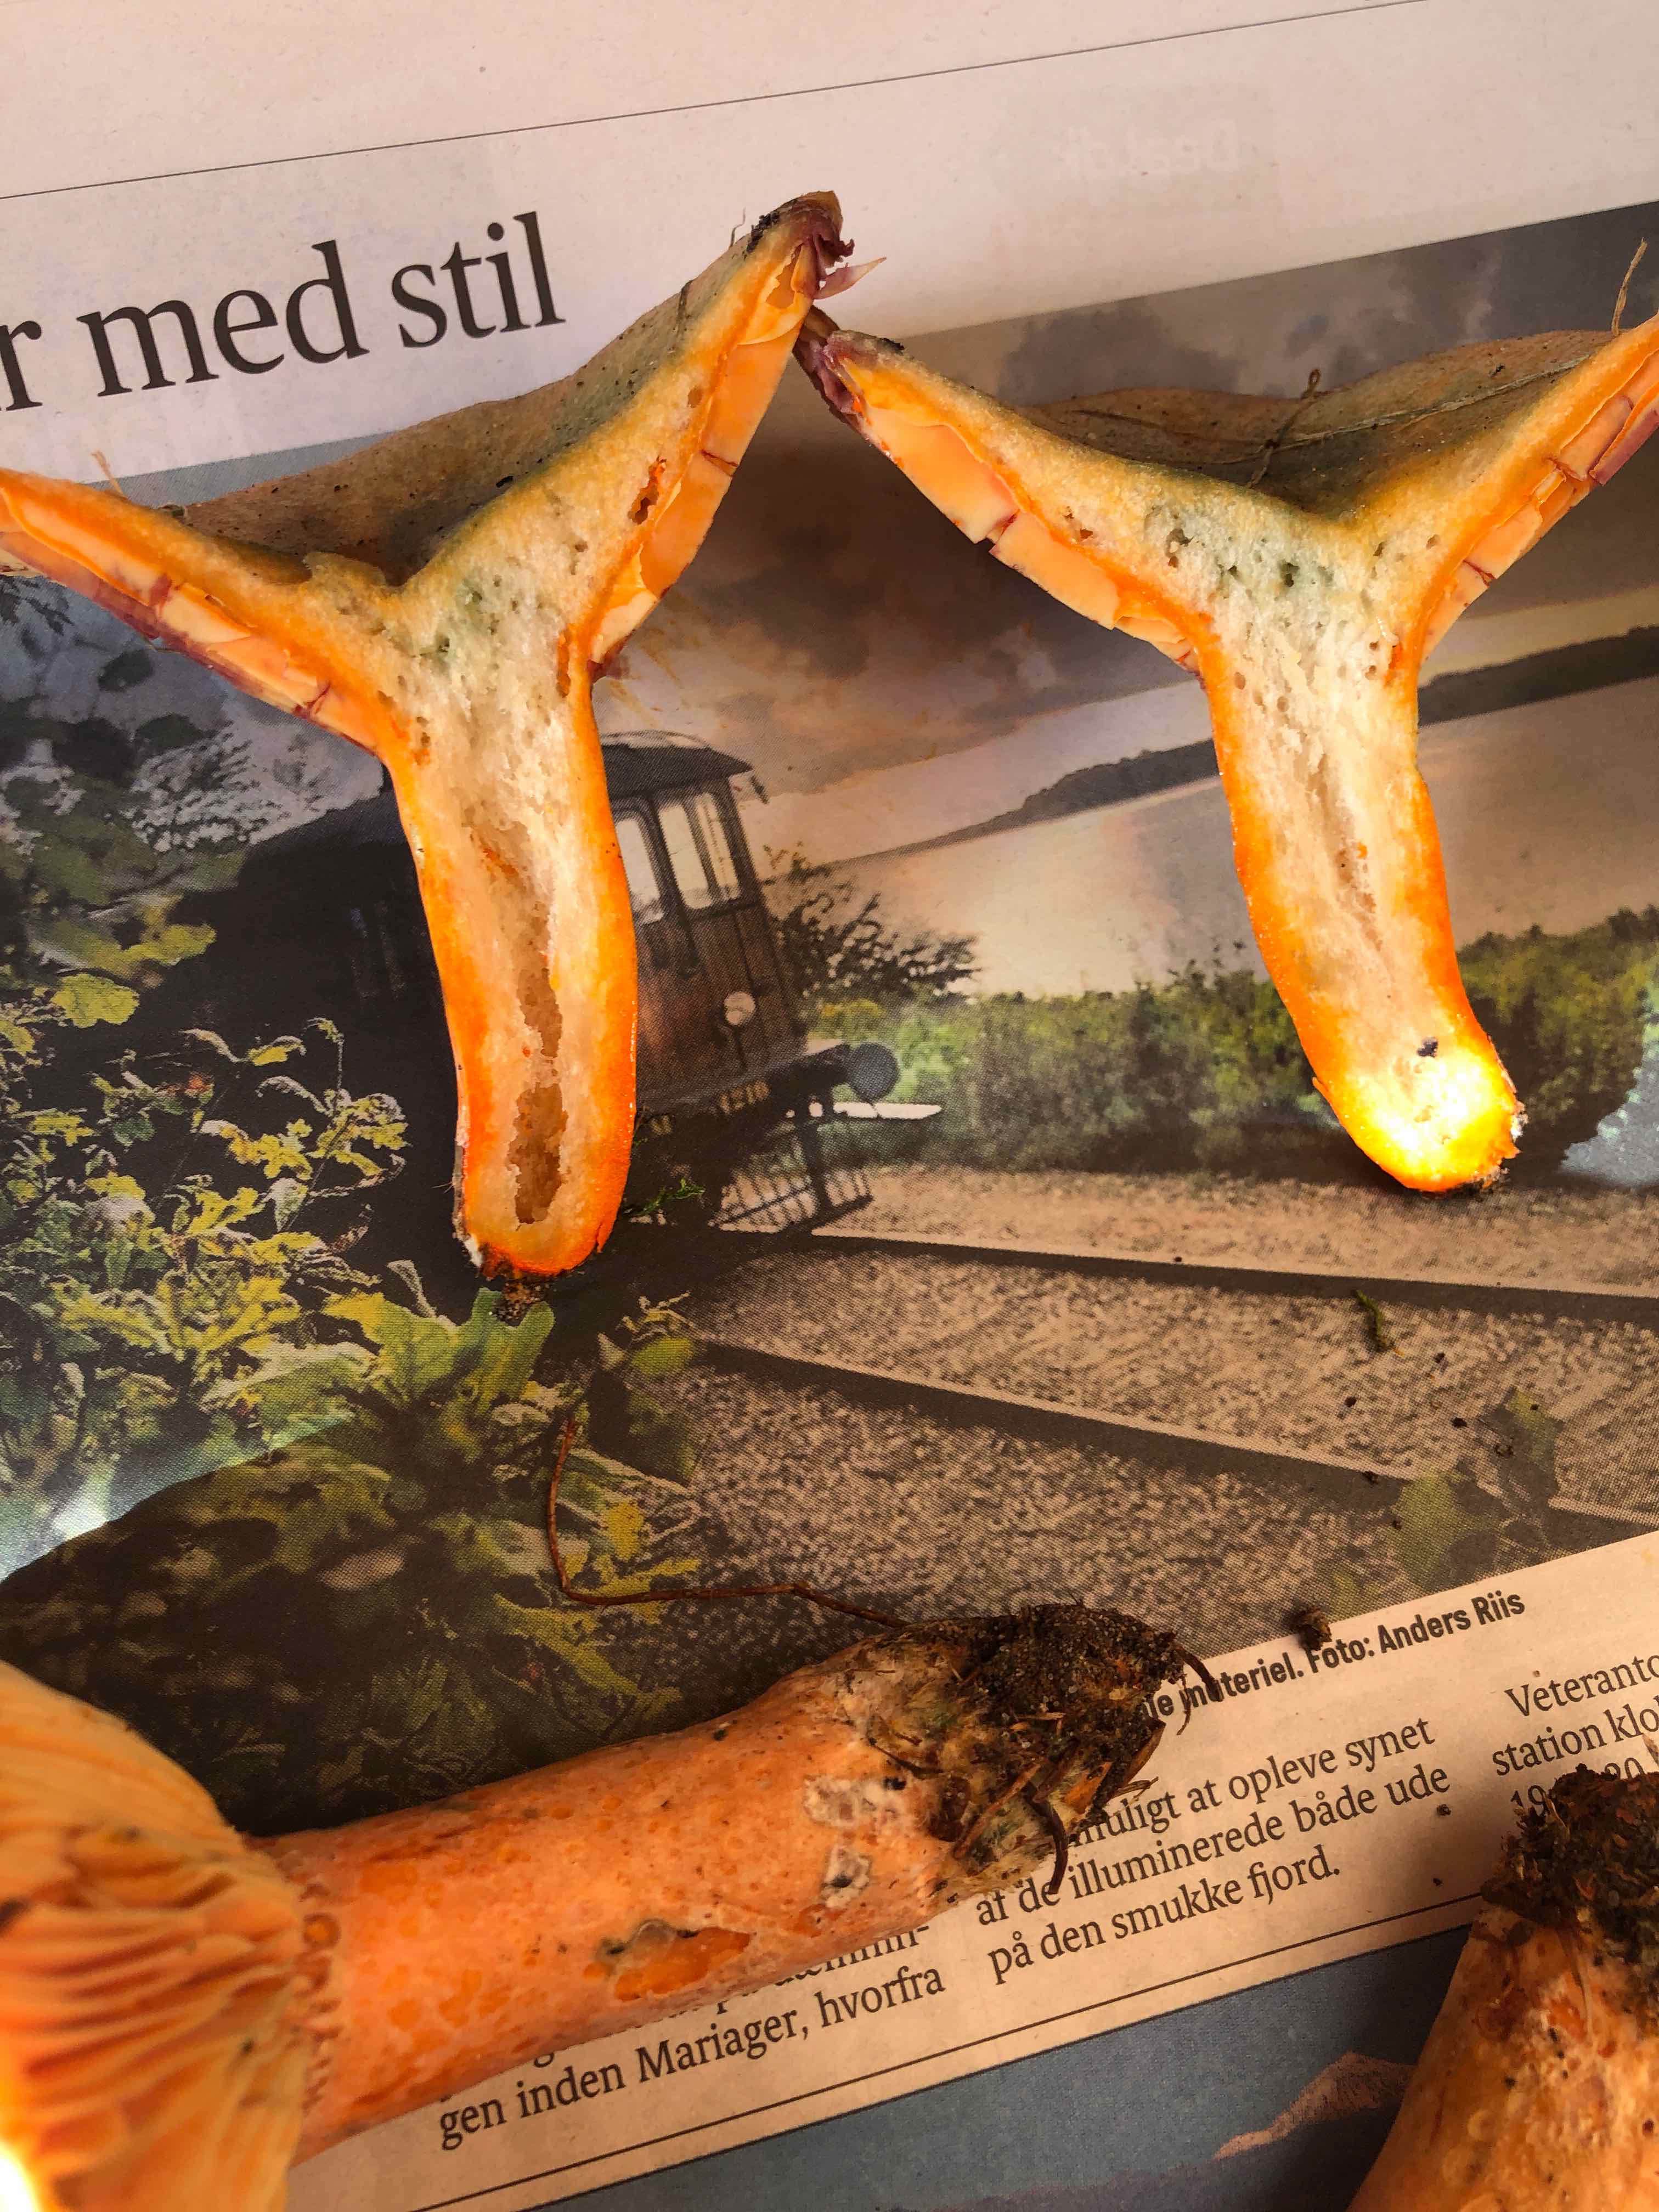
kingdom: Fungi
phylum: Basidiomycota
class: Agaricomycetes
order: Russulales
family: Russulaceae
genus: Lactarius
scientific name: Lactarius deterrimus
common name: gran-mælkehat
